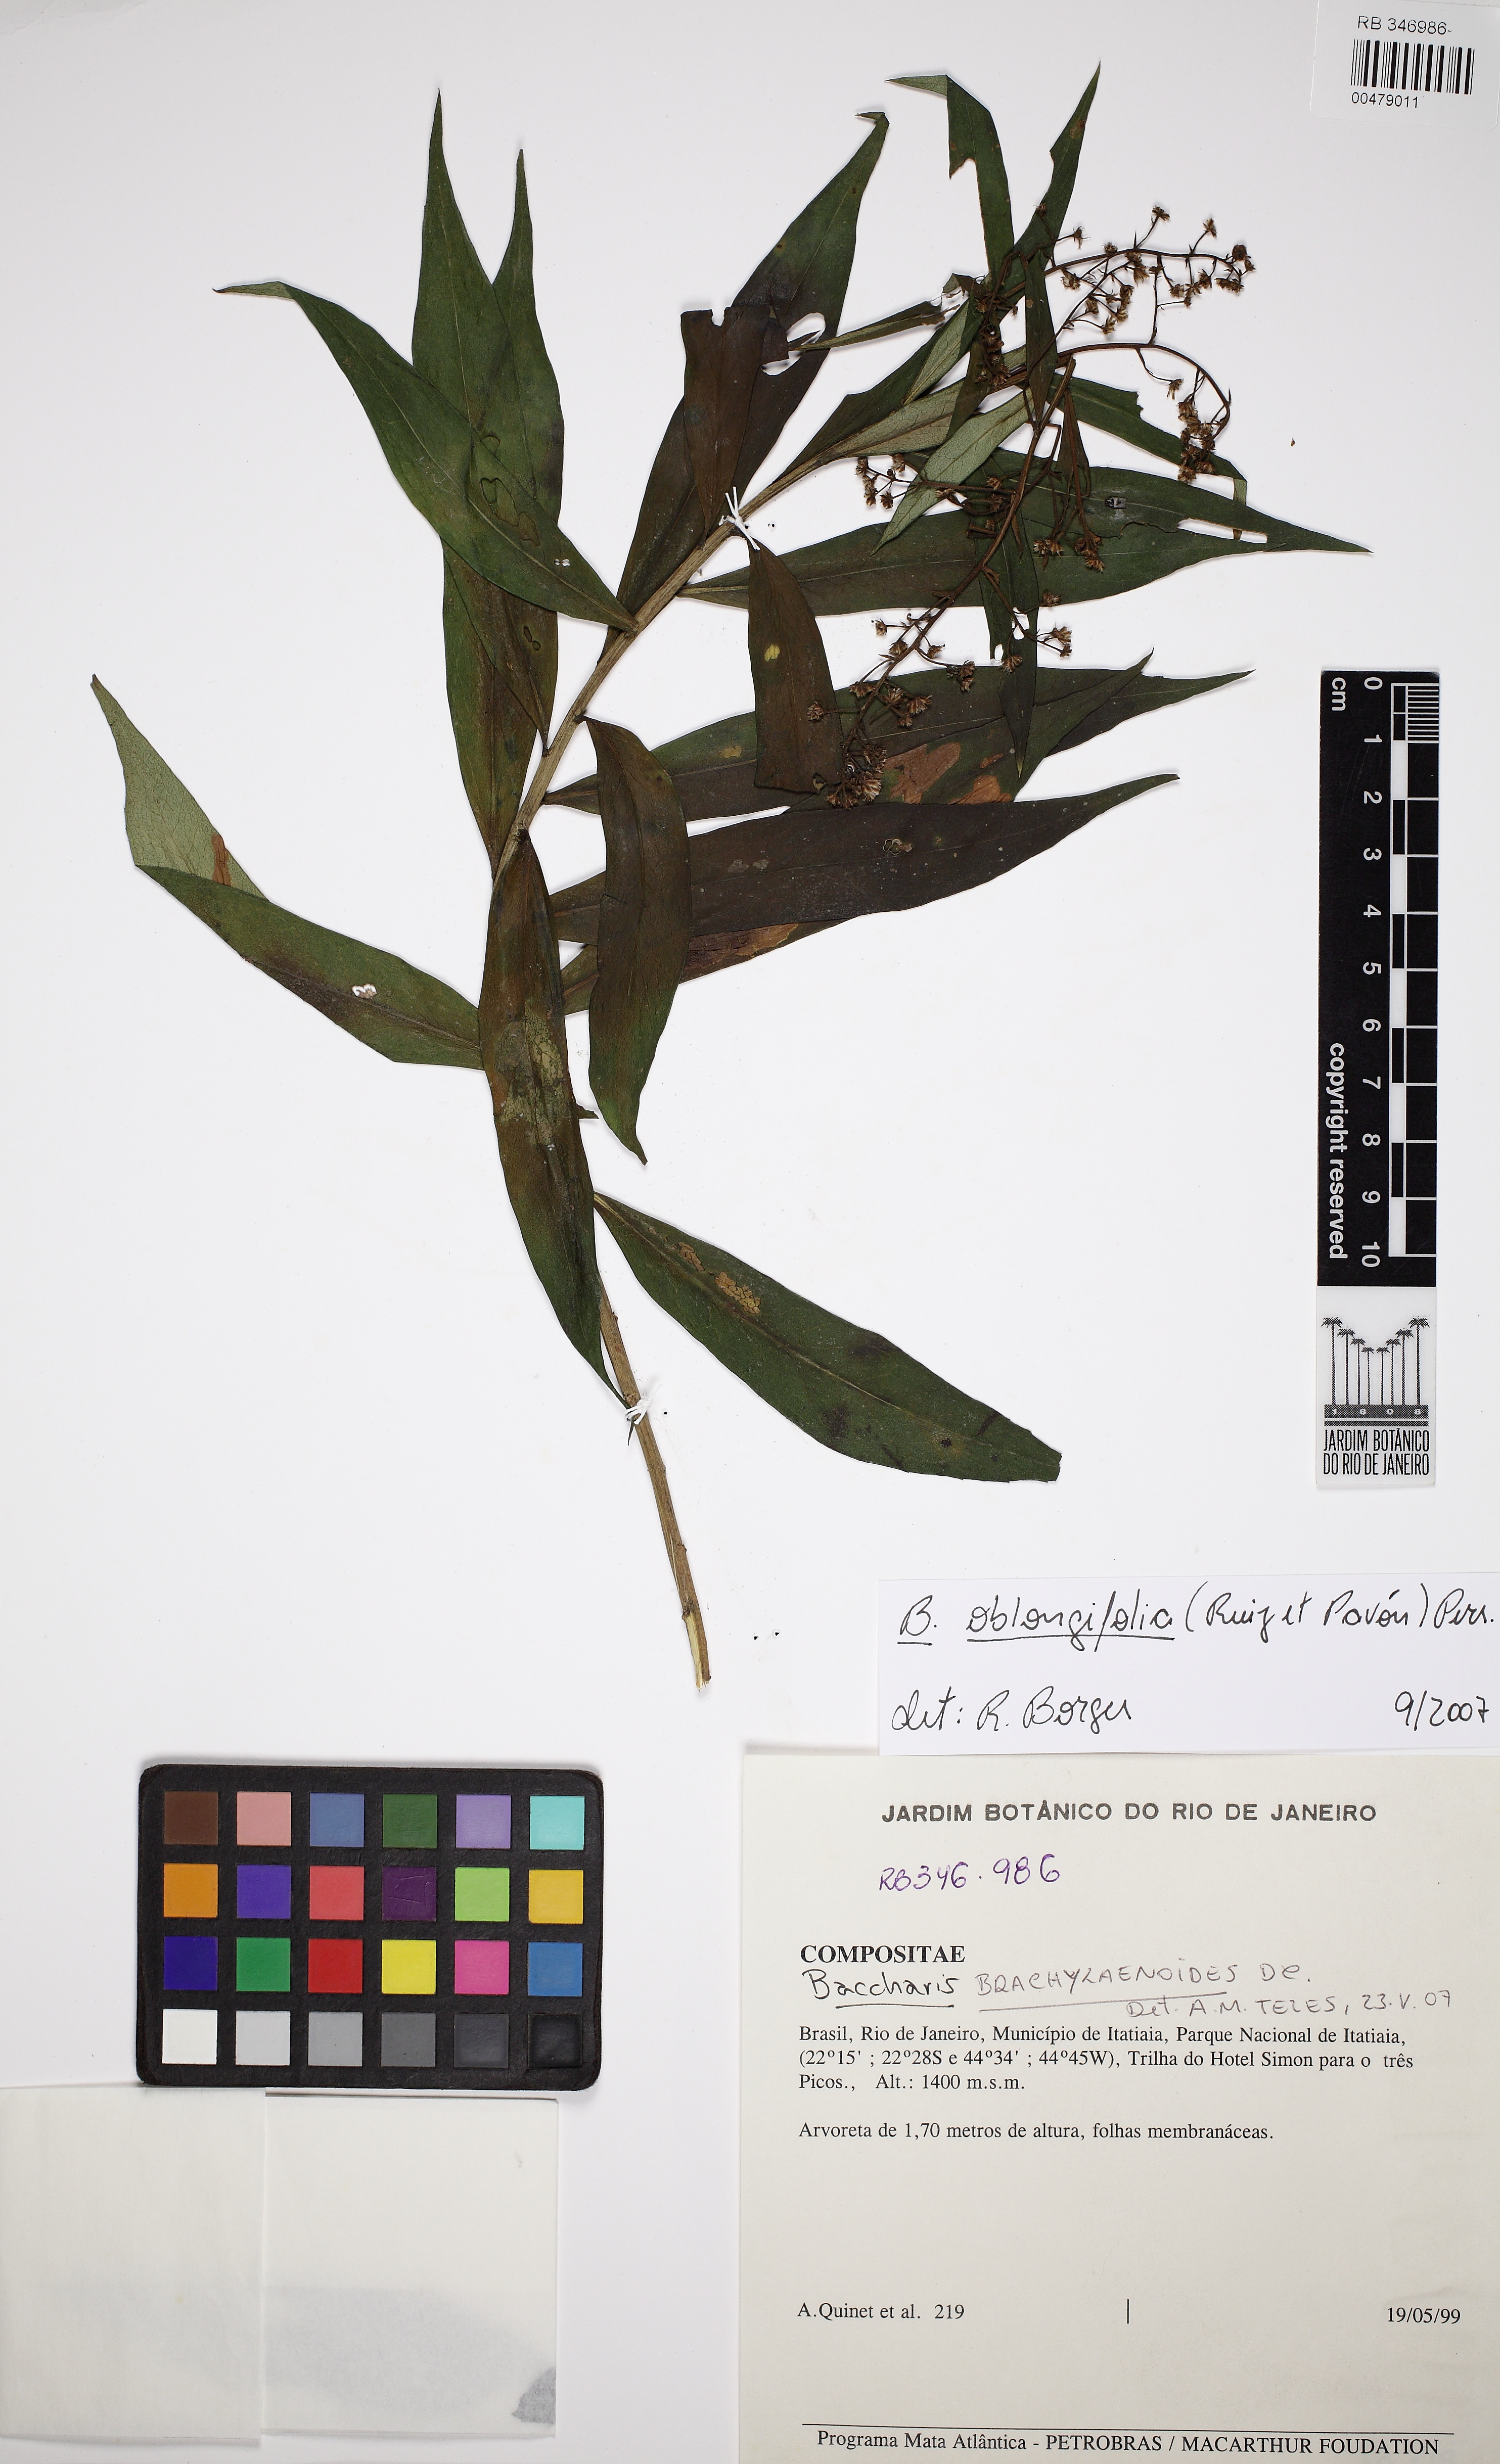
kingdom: Plantae
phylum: Tracheophyta
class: Magnoliopsida
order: Asterales
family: Asteraceae
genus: Baccharis
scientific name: Baccharis oblongifolia
